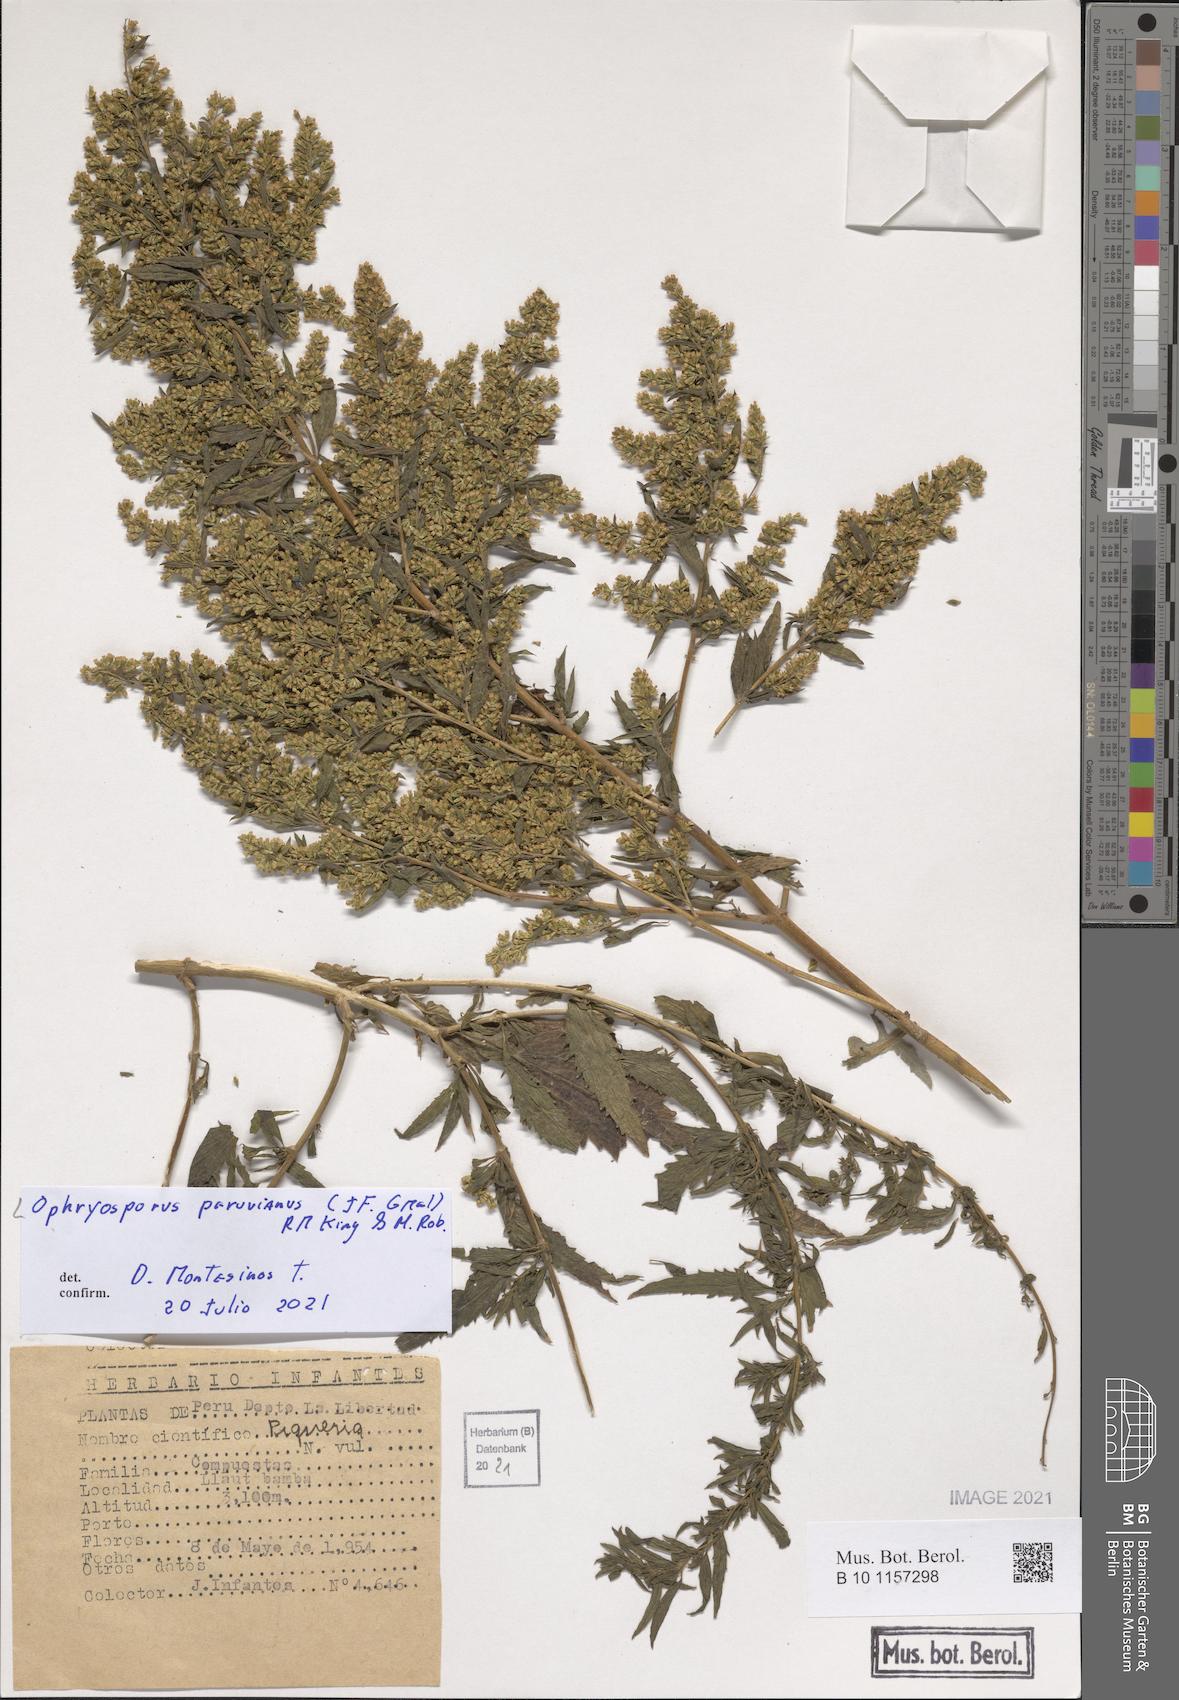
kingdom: Plantae
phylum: Tracheophyta
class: Magnoliopsida
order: Asterales
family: Asteraceae
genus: Ophryosporus
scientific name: Ophryosporus peruvianus
